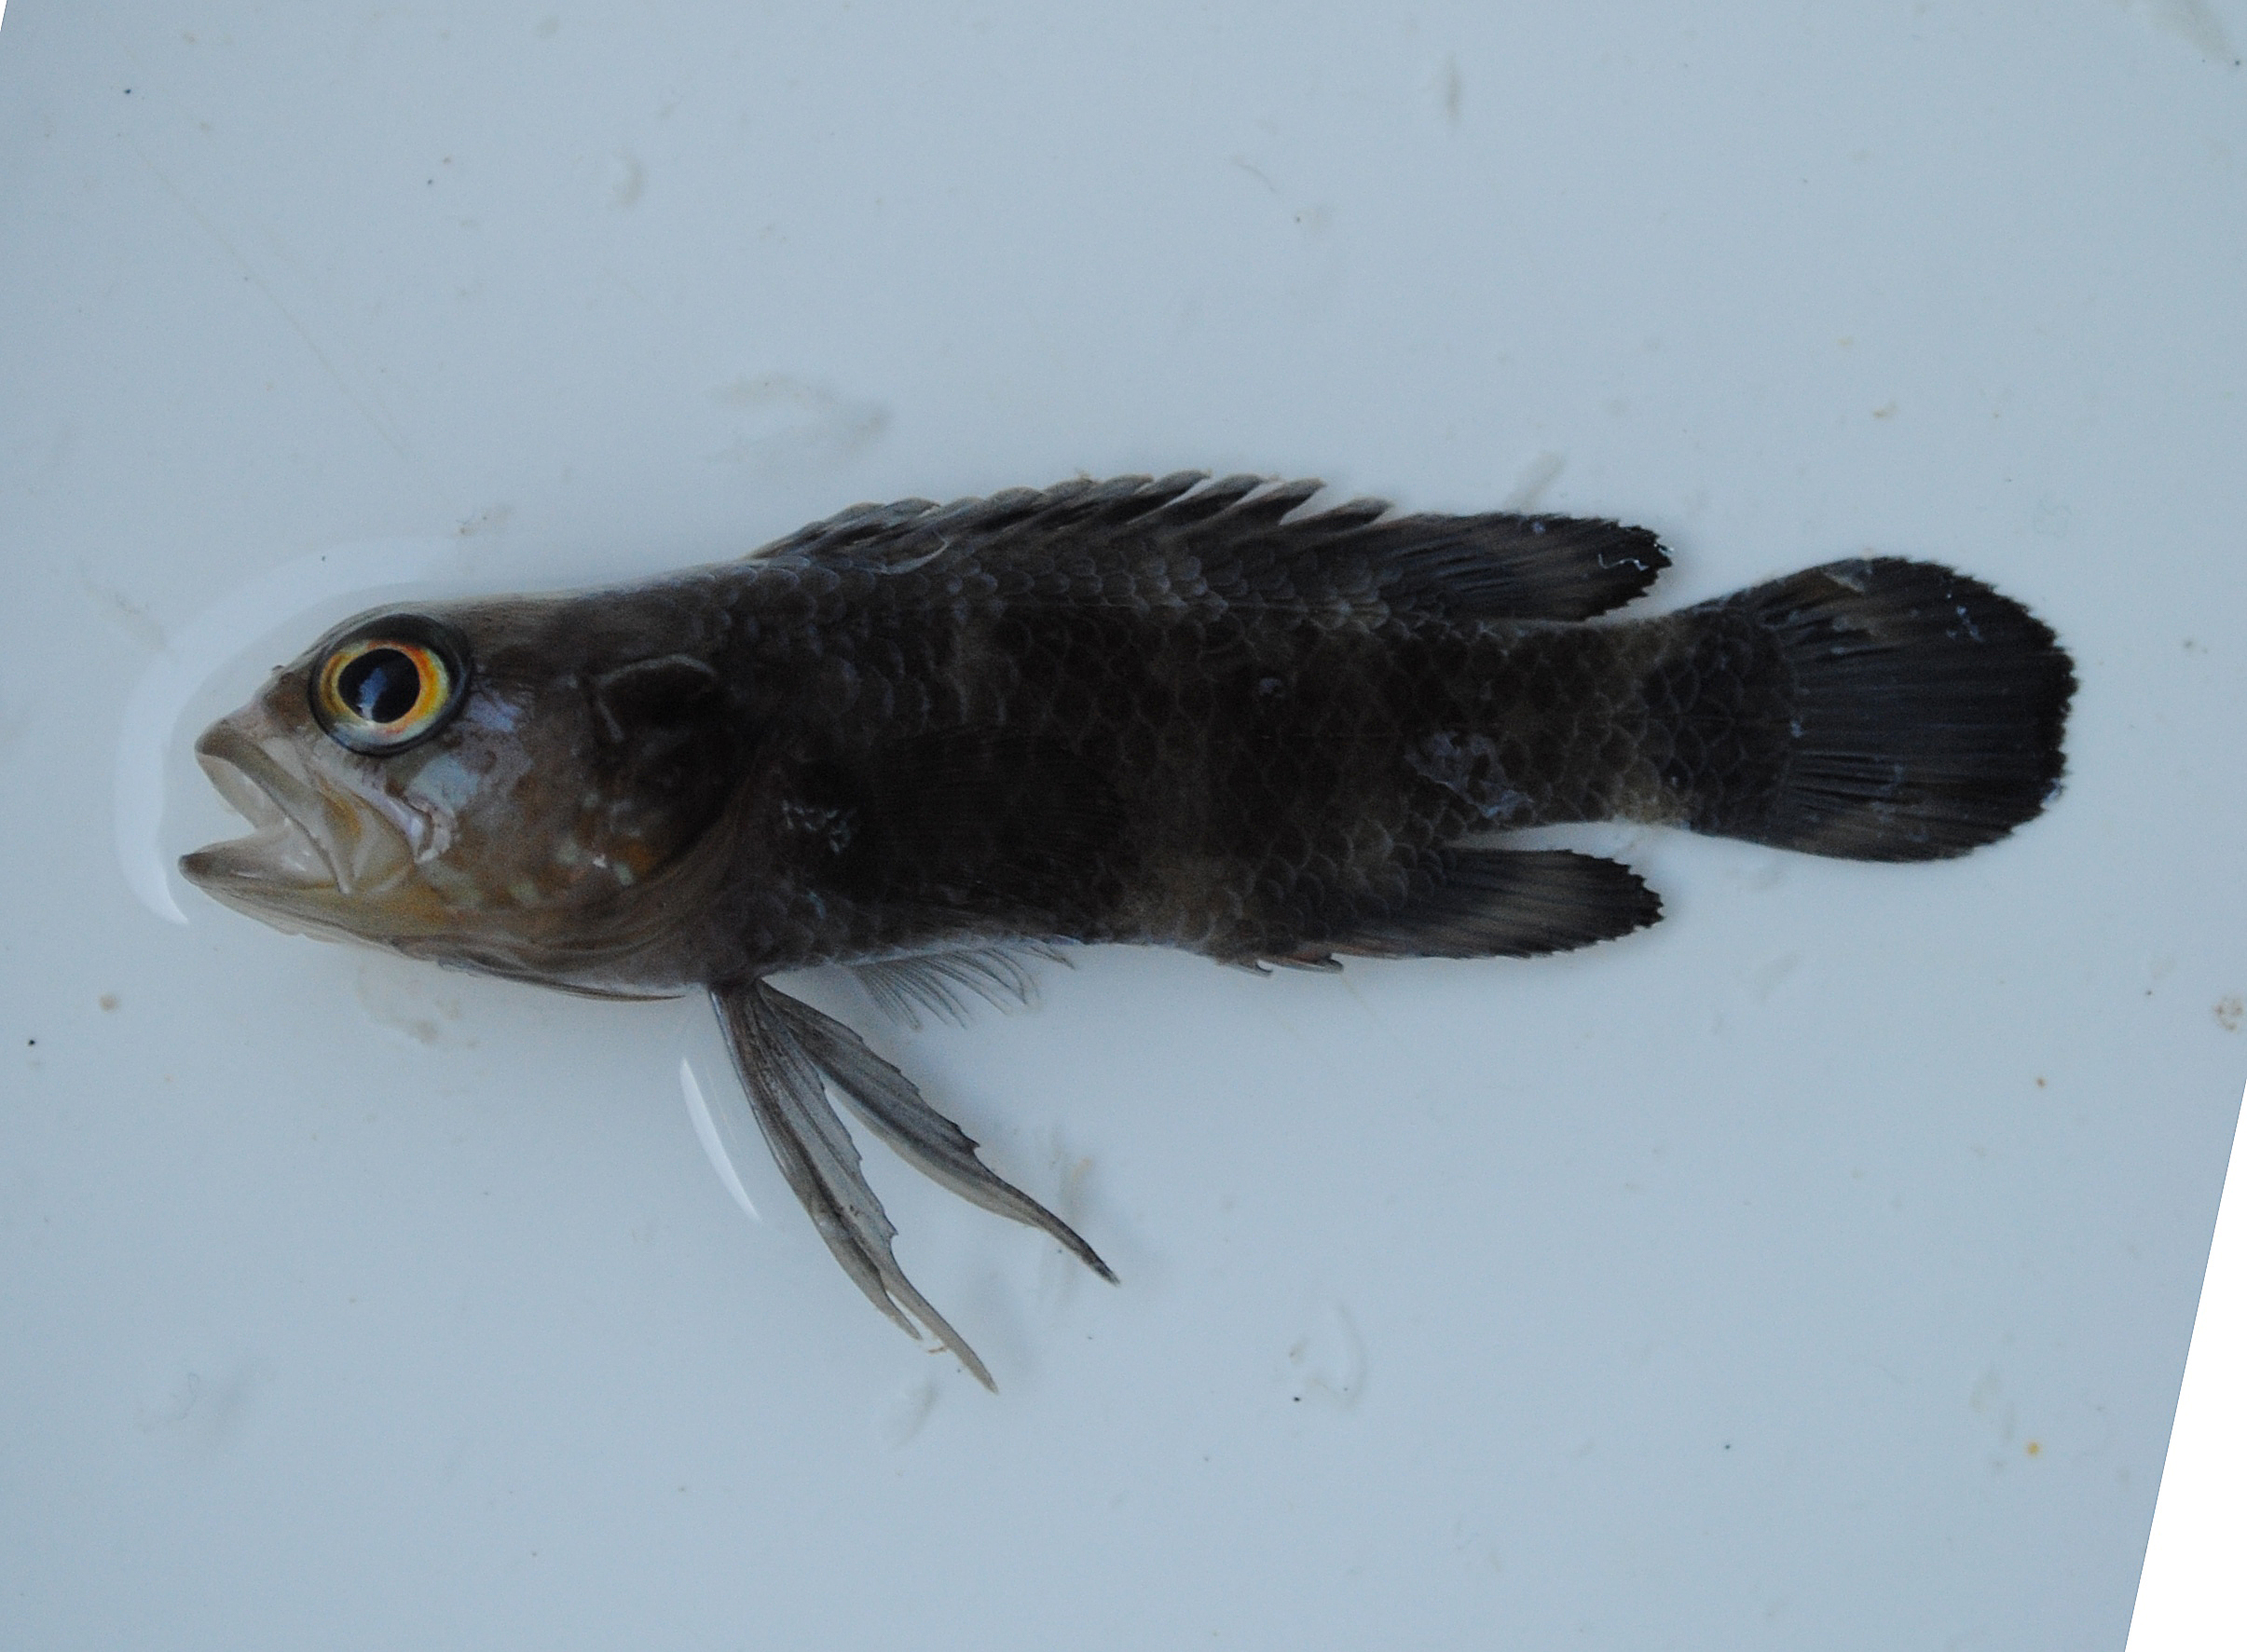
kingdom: Animalia
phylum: Chordata
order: Perciformes
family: Plesiopidae
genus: Plesiops
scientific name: Plesiops
